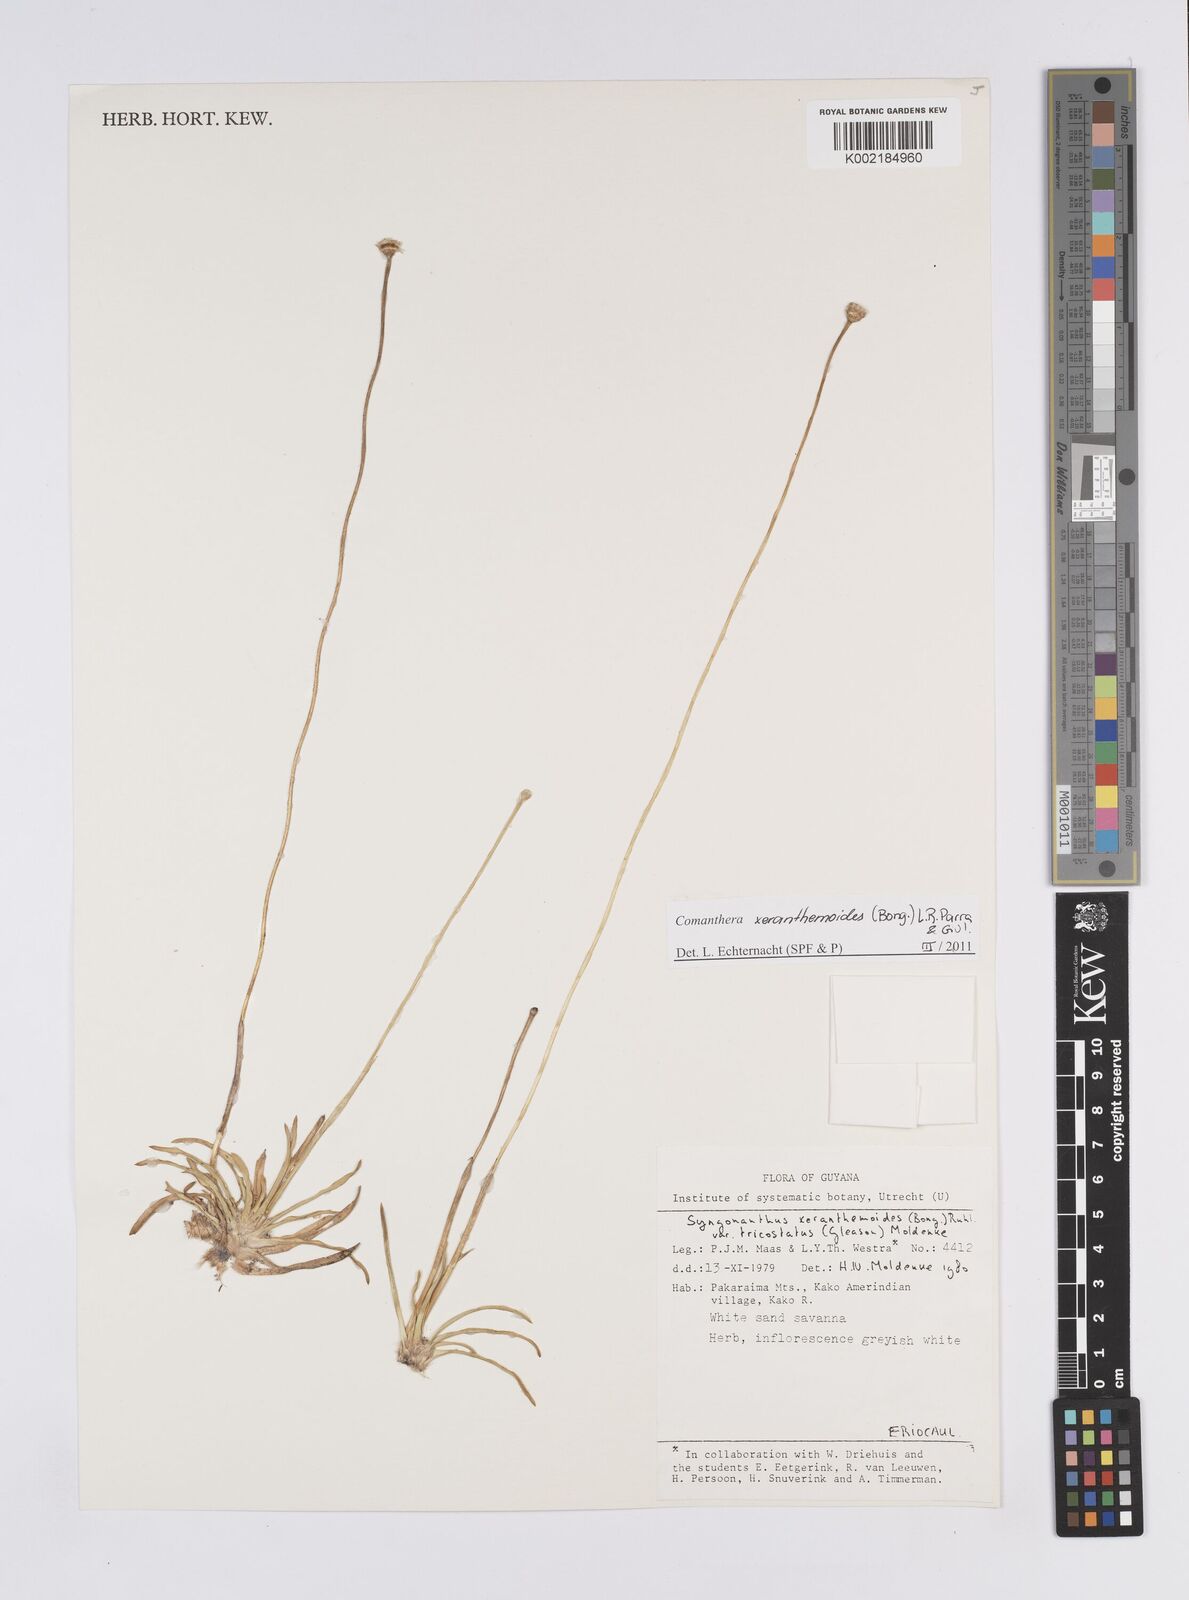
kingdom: Plantae
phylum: Tracheophyta
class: Liliopsida
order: Poales
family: Eriocaulaceae
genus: Comanthera
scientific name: Comanthera xeranthemoides
